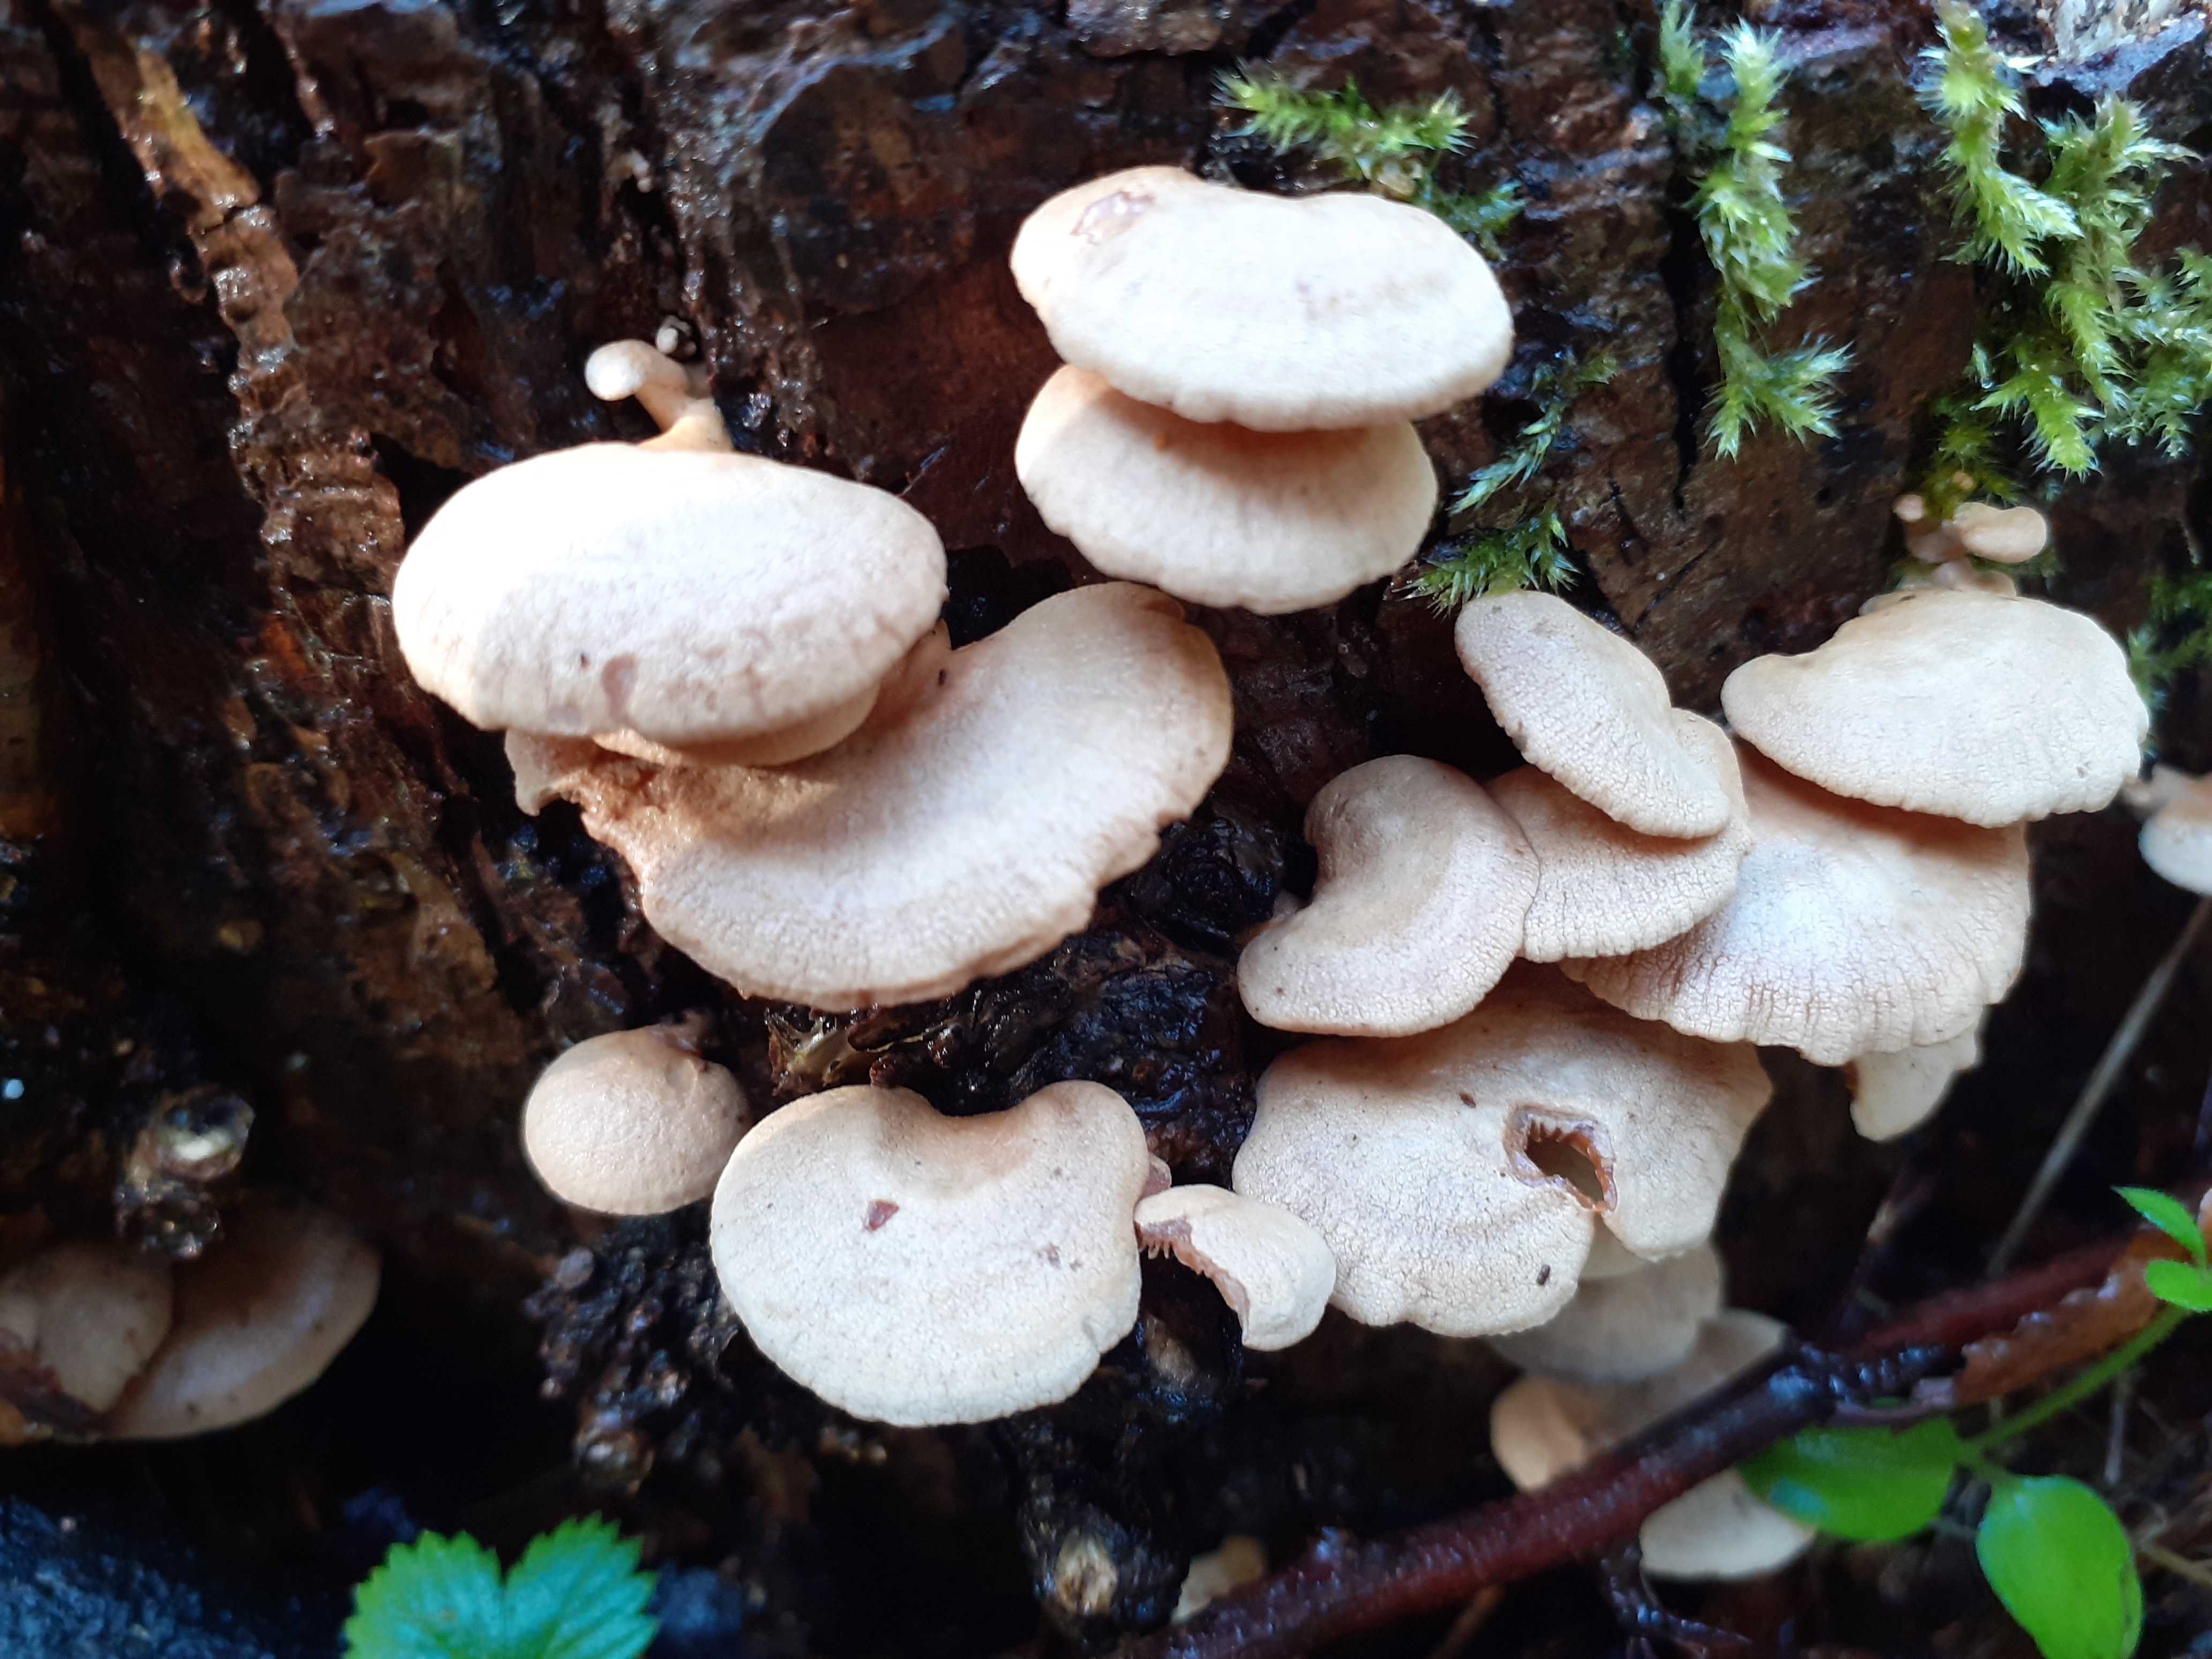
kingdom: Fungi
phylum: Basidiomycota
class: Agaricomycetes
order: Agaricales
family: Mycenaceae
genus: Panellus
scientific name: Panellus stipticus
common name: kliddet epaulethat
